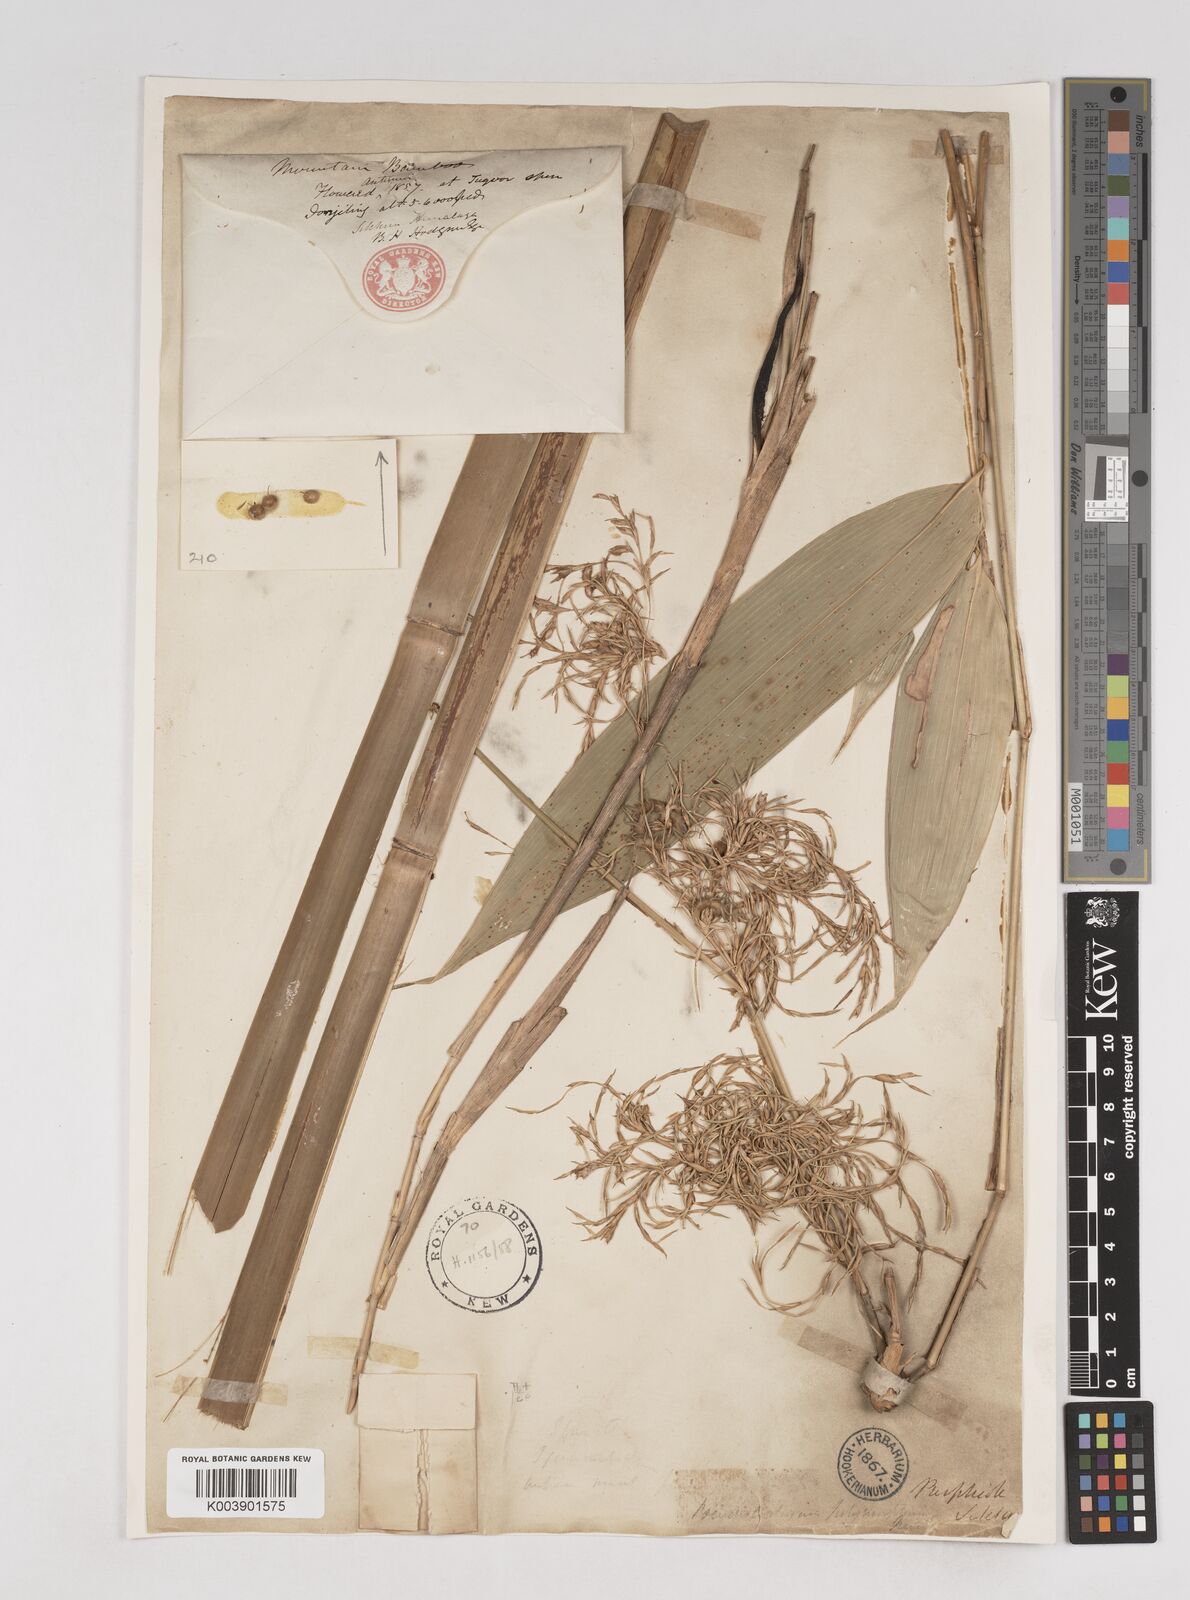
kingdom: Plantae
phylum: Tracheophyta
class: Liliopsida
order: Poales
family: Poaceae
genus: Pseudostachyum
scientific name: Pseudostachyum polymorphum
